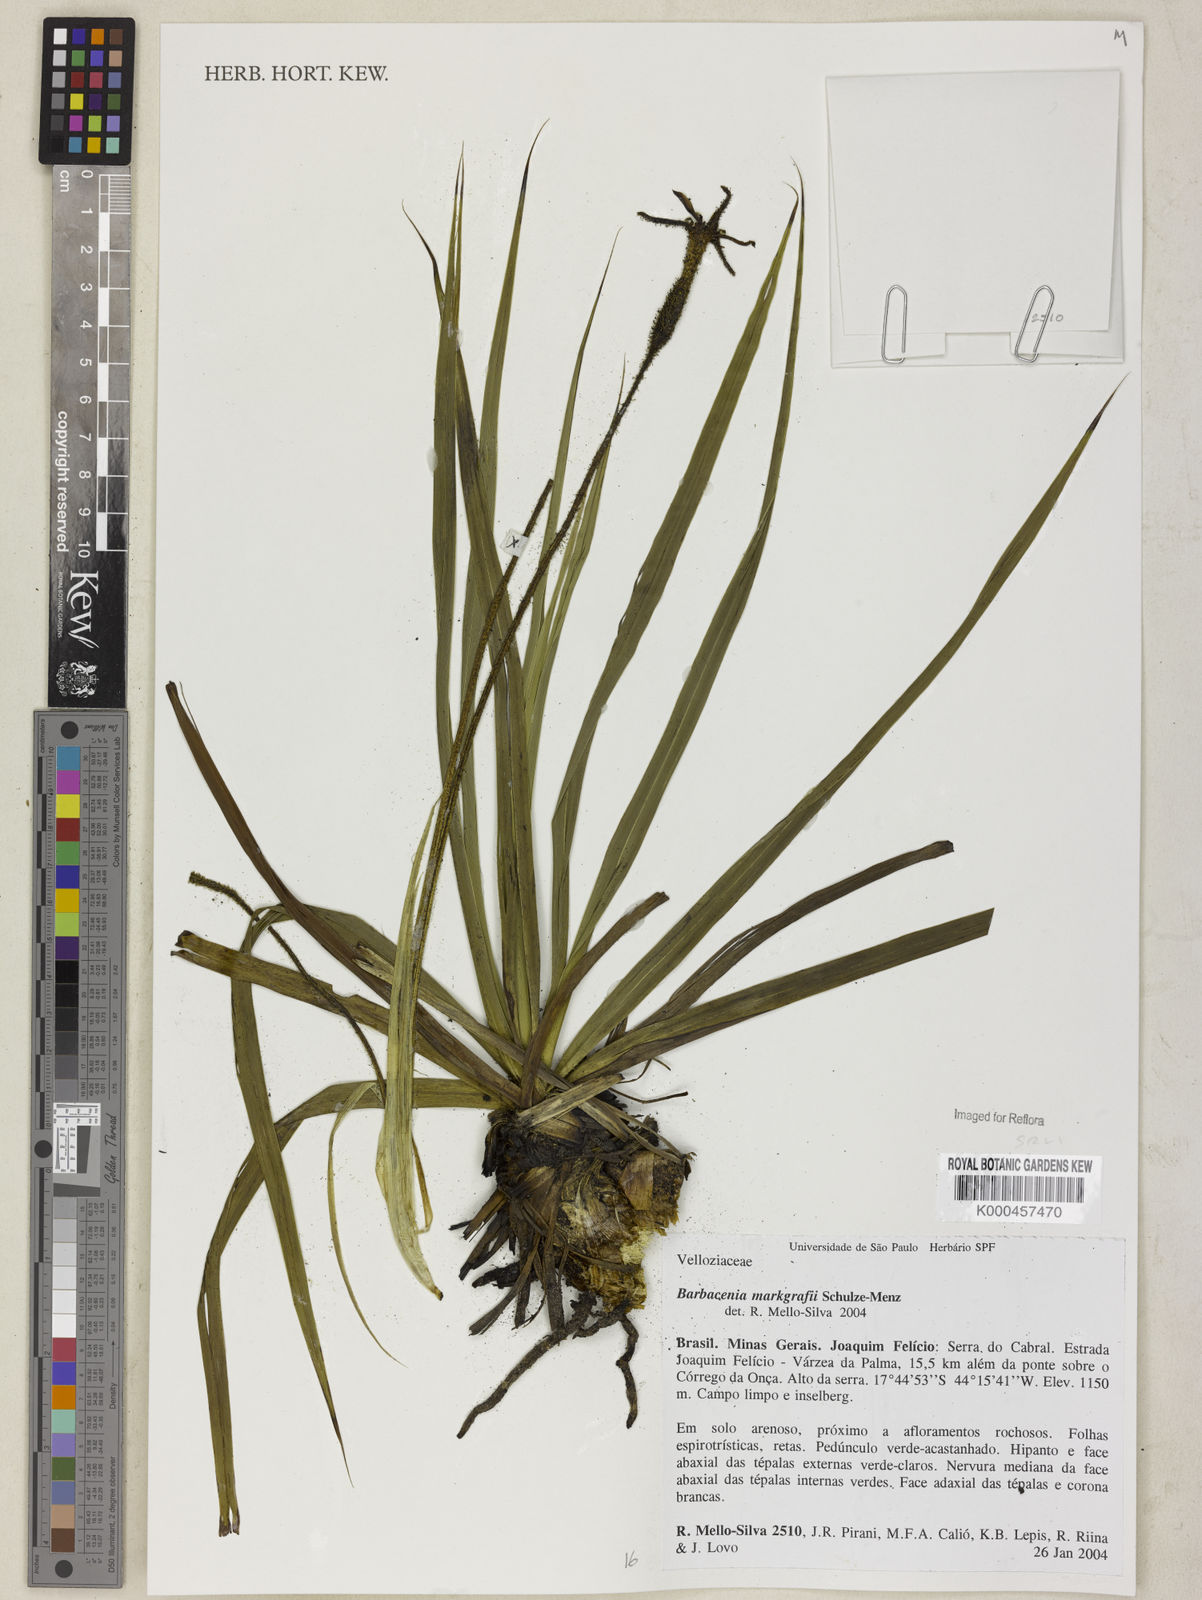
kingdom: Plantae
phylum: Tracheophyta
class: Liliopsida
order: Pandanales
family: Velloziaceae
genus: Barbacenia
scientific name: Barbacenia markgrafii
